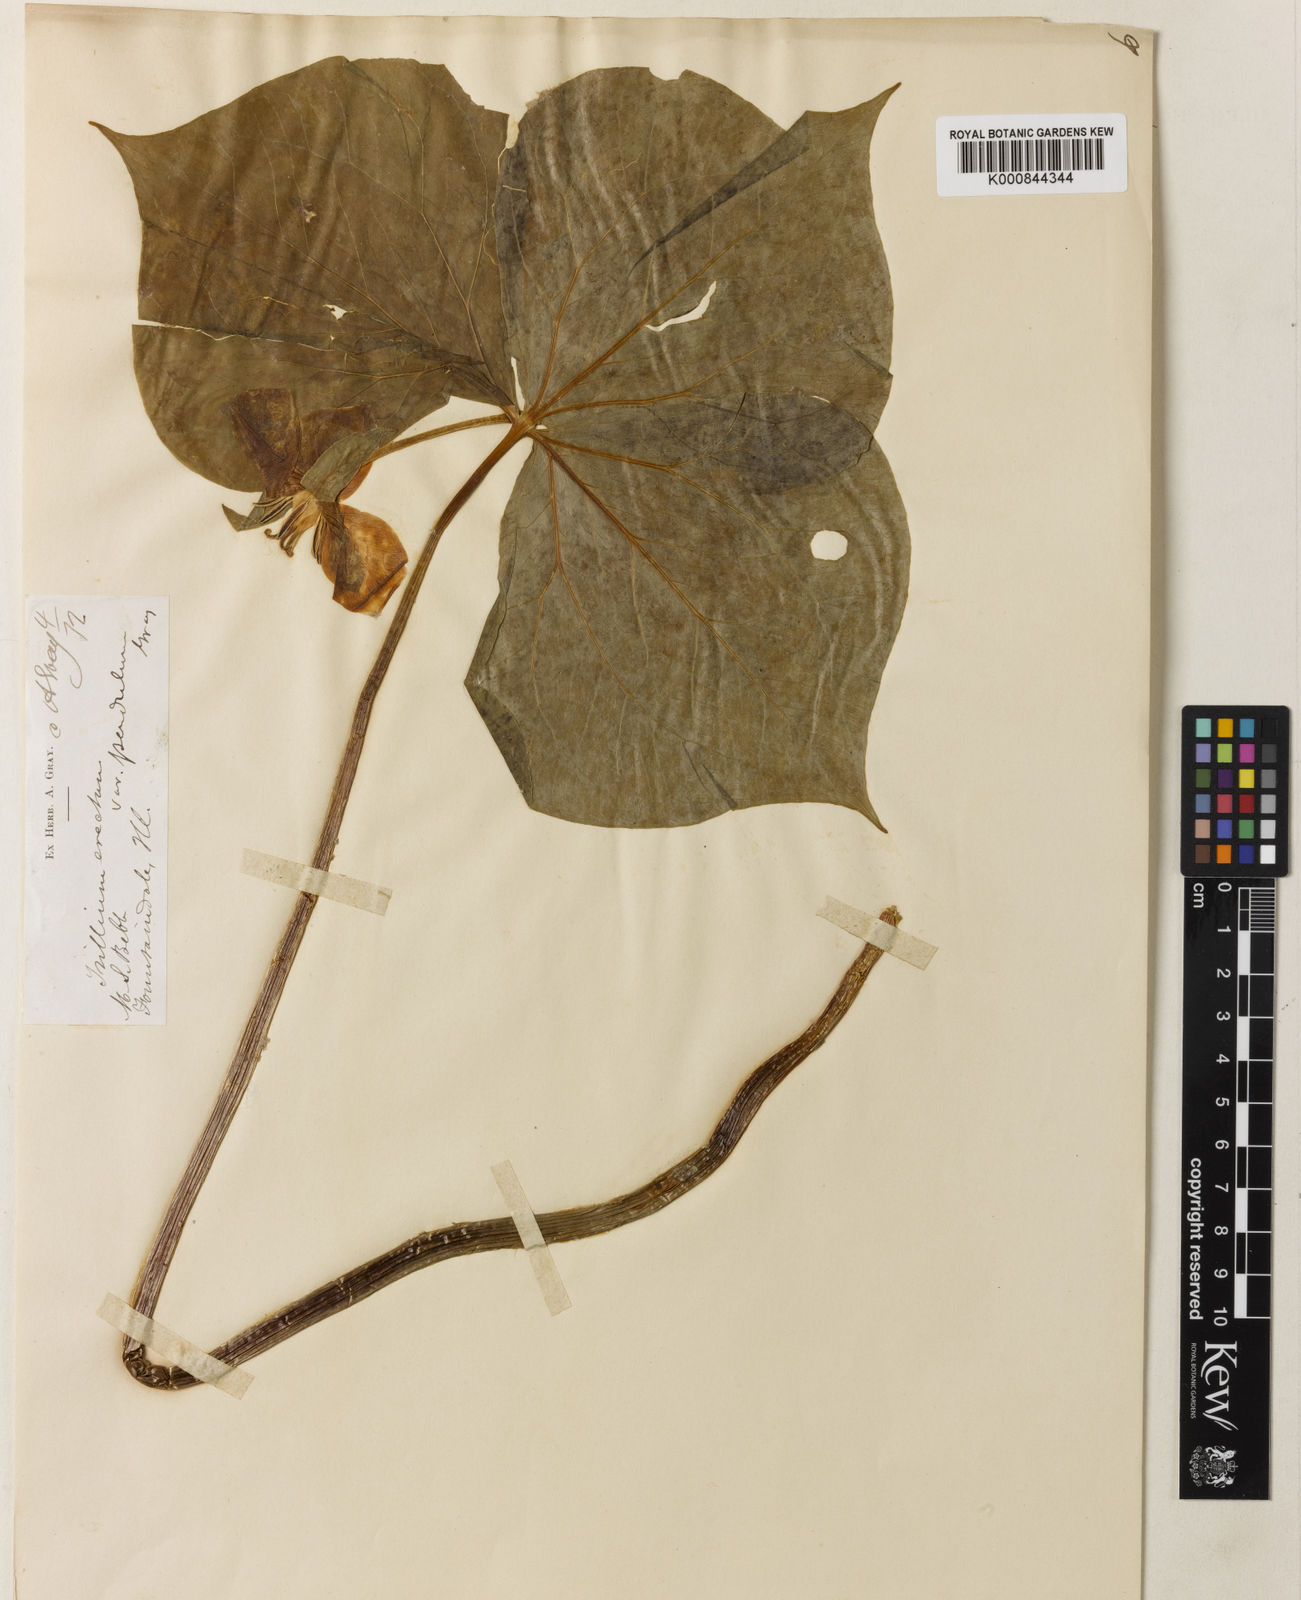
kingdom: Plantae
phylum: Tracheophyta
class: Liliopsida
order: Liliales
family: Melanthiaceae
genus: Trillium
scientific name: Trillium erectum
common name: Purple trillium
